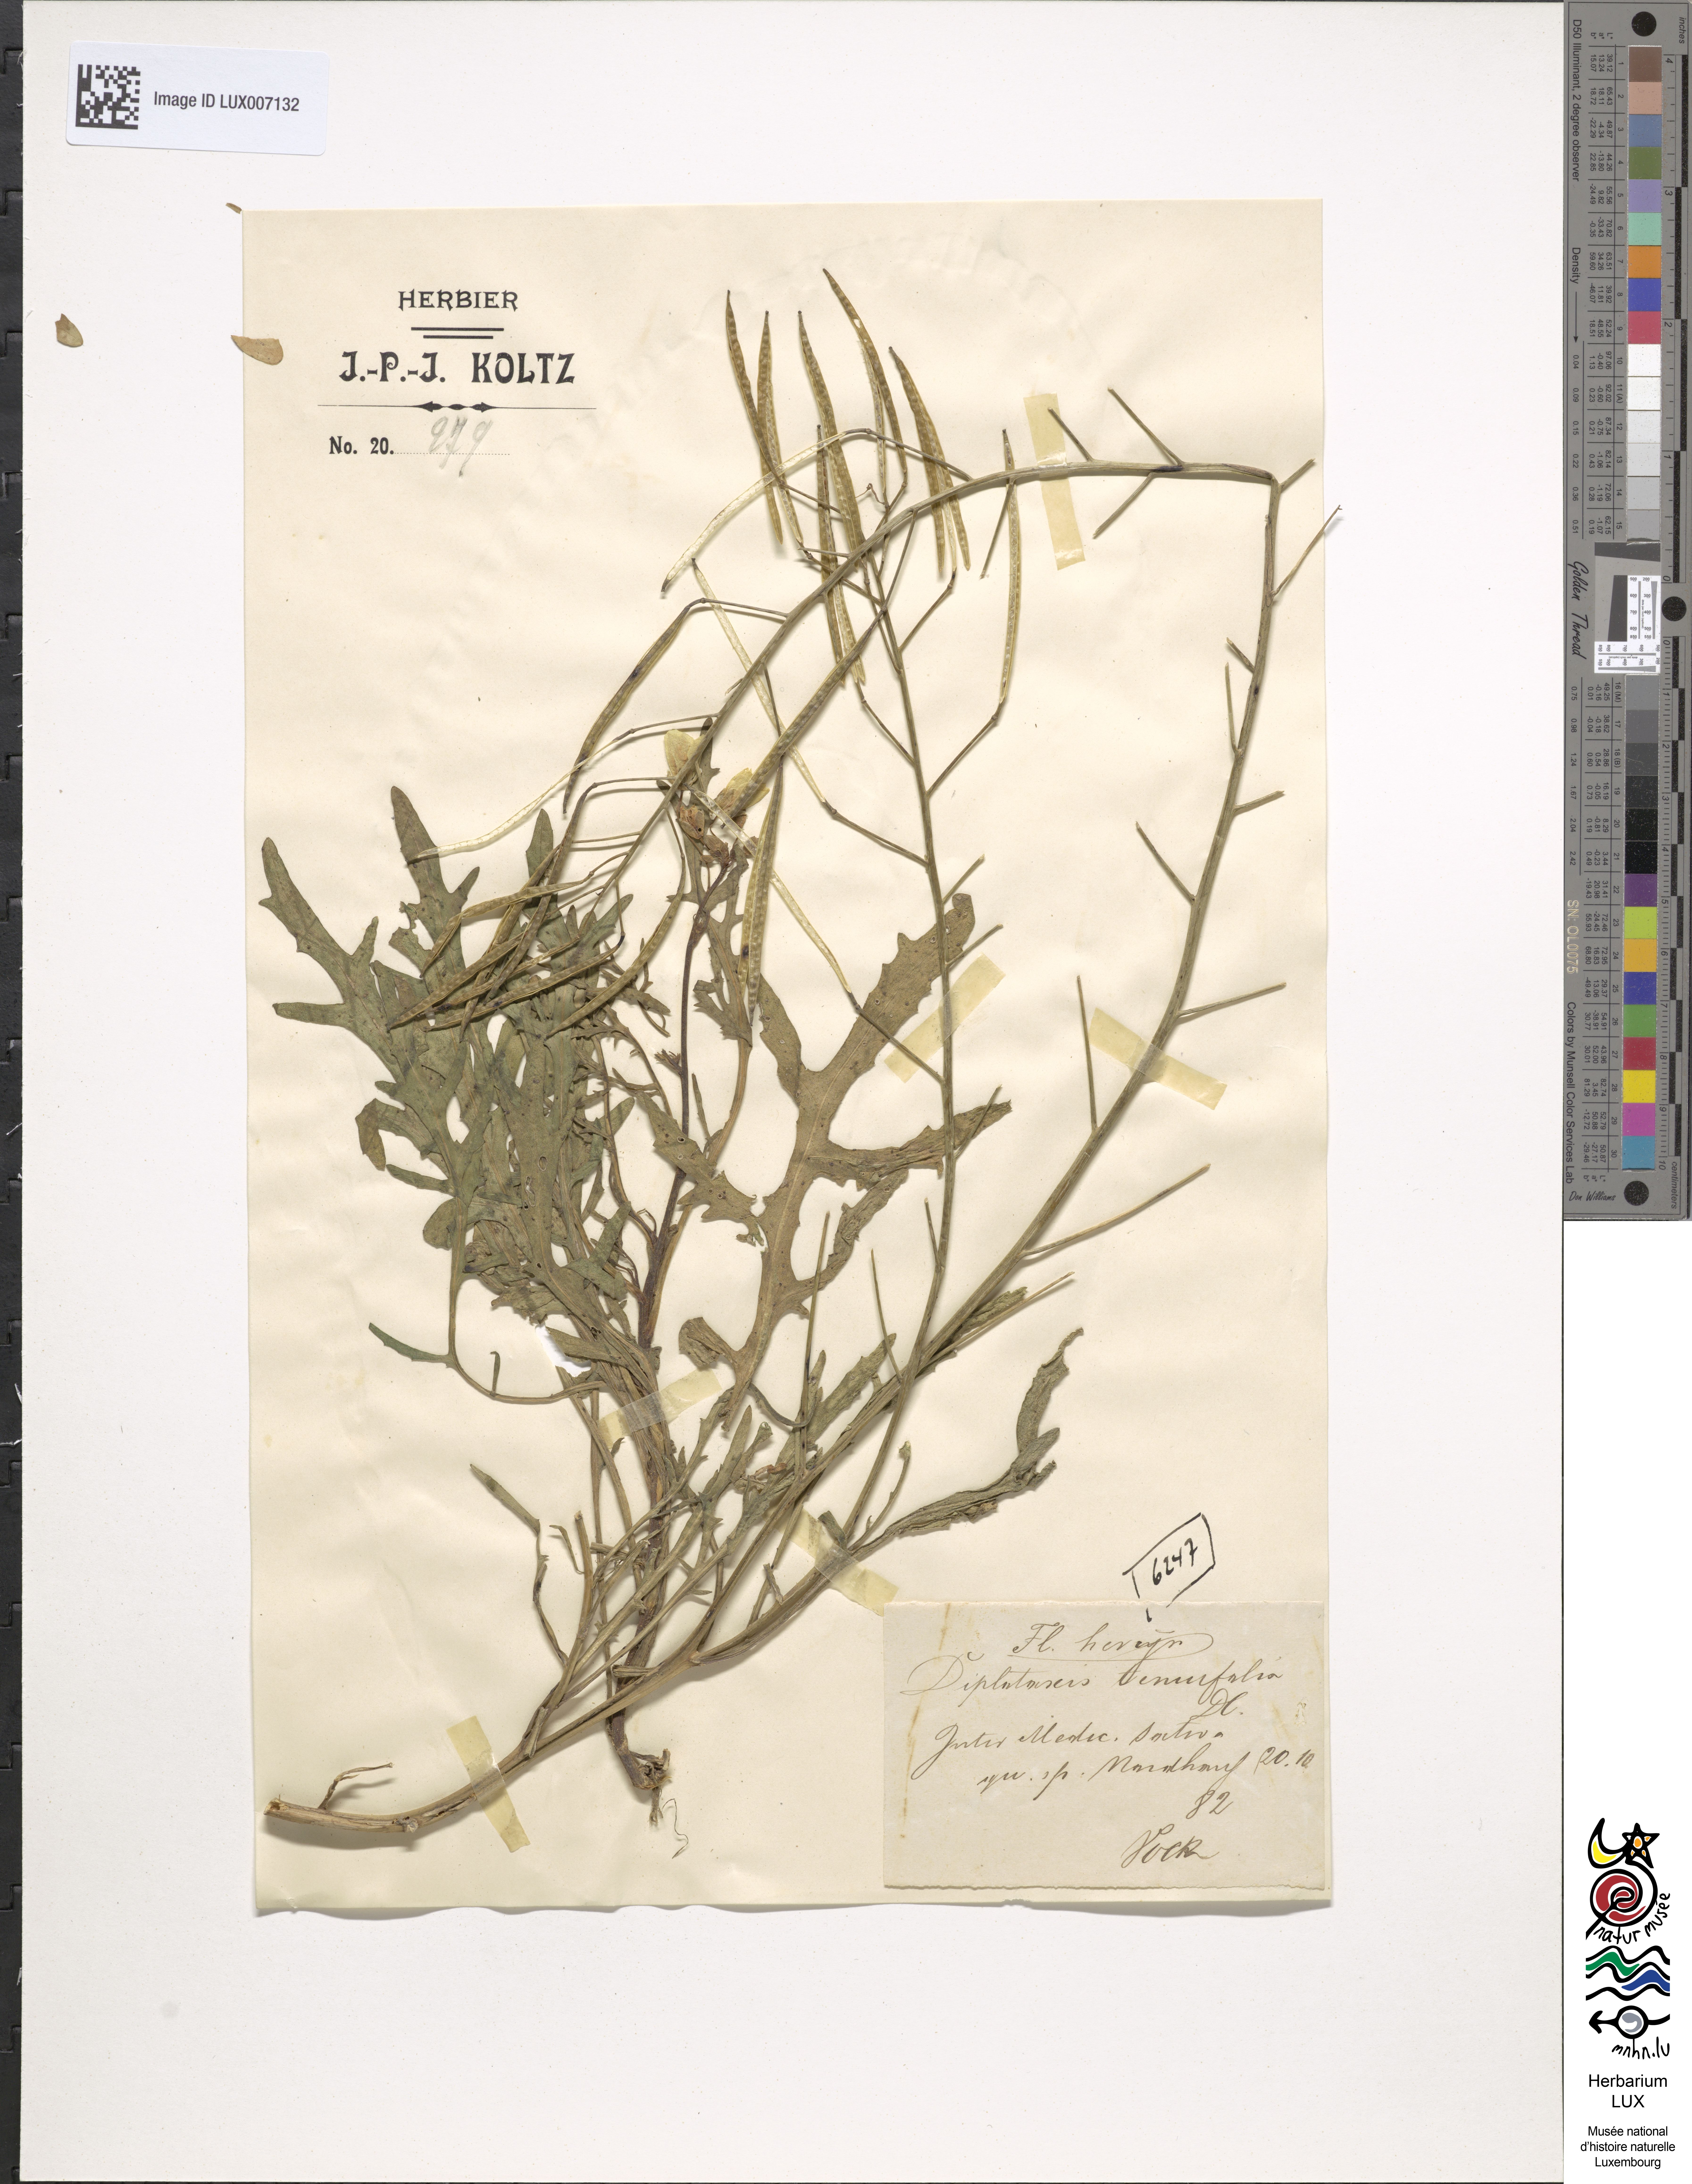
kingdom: Plantae
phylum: Tracheophyta
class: Magnoliopsida
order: Brassicales
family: Brassicaceae
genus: Diplotaxis
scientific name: Diplotaxis tenuifolia
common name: Perennial wall-rocket
